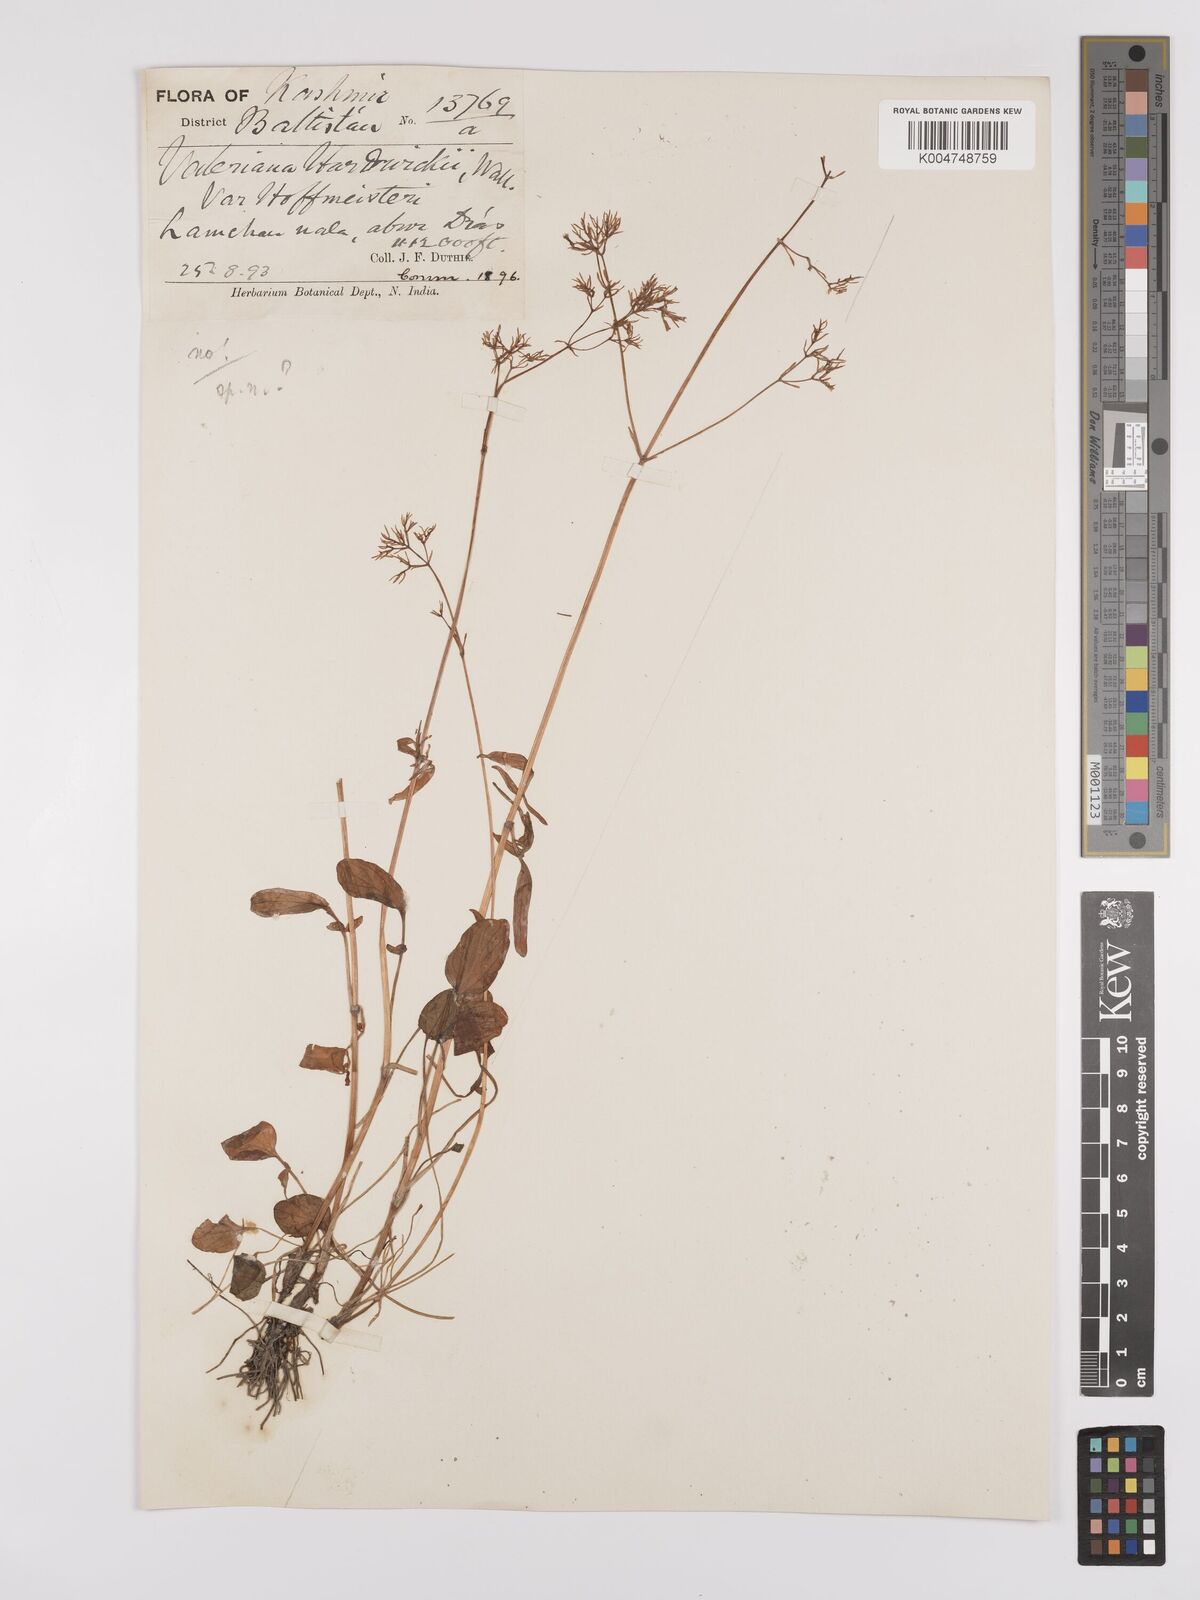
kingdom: Plantae
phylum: Tracheophyta
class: Magnoliopsida
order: Dipsacales
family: Caprifoliaceae
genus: Valeriana
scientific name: Valeriana
